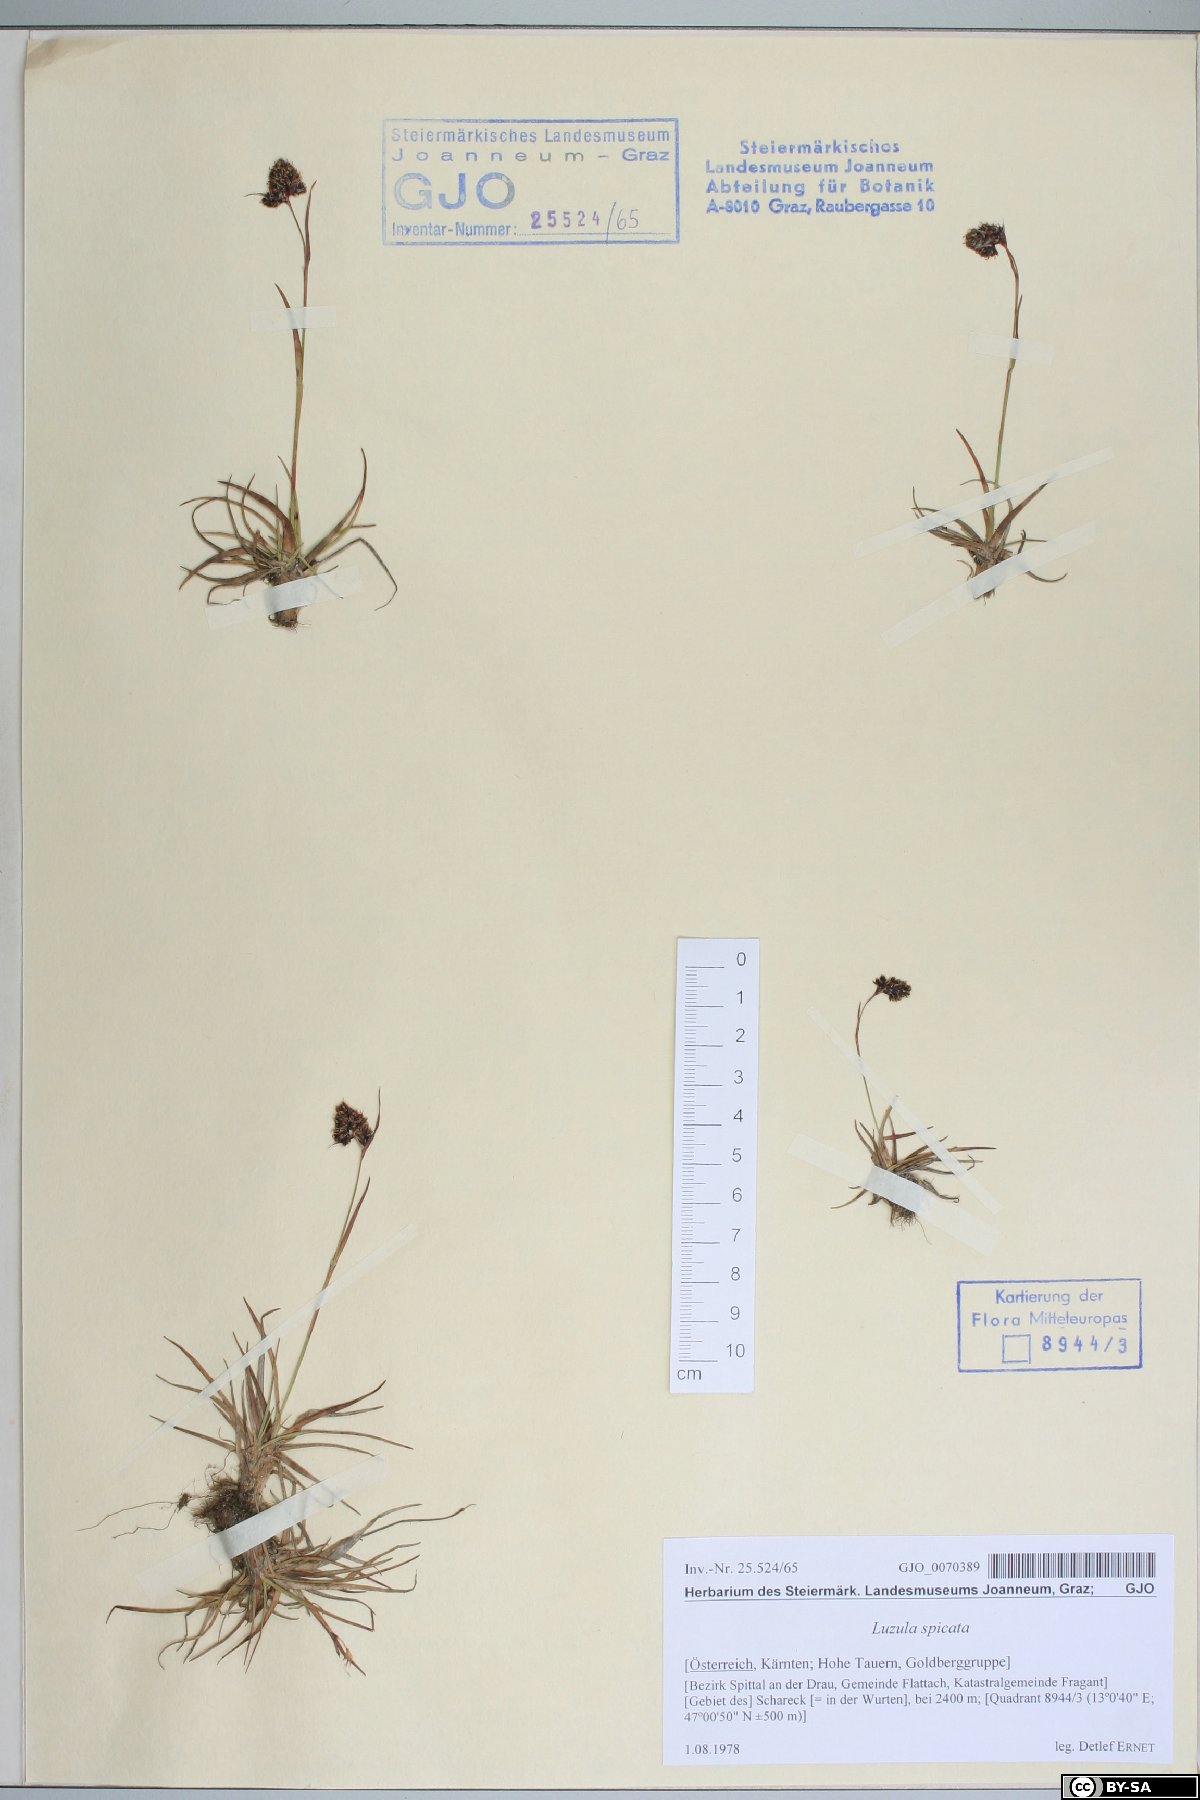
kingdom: Plantae
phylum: Tracheophyta
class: Liliopsida
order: Poales
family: Juncaceae
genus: Luzula
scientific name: Luzula spicata
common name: Spiked wood-rush
